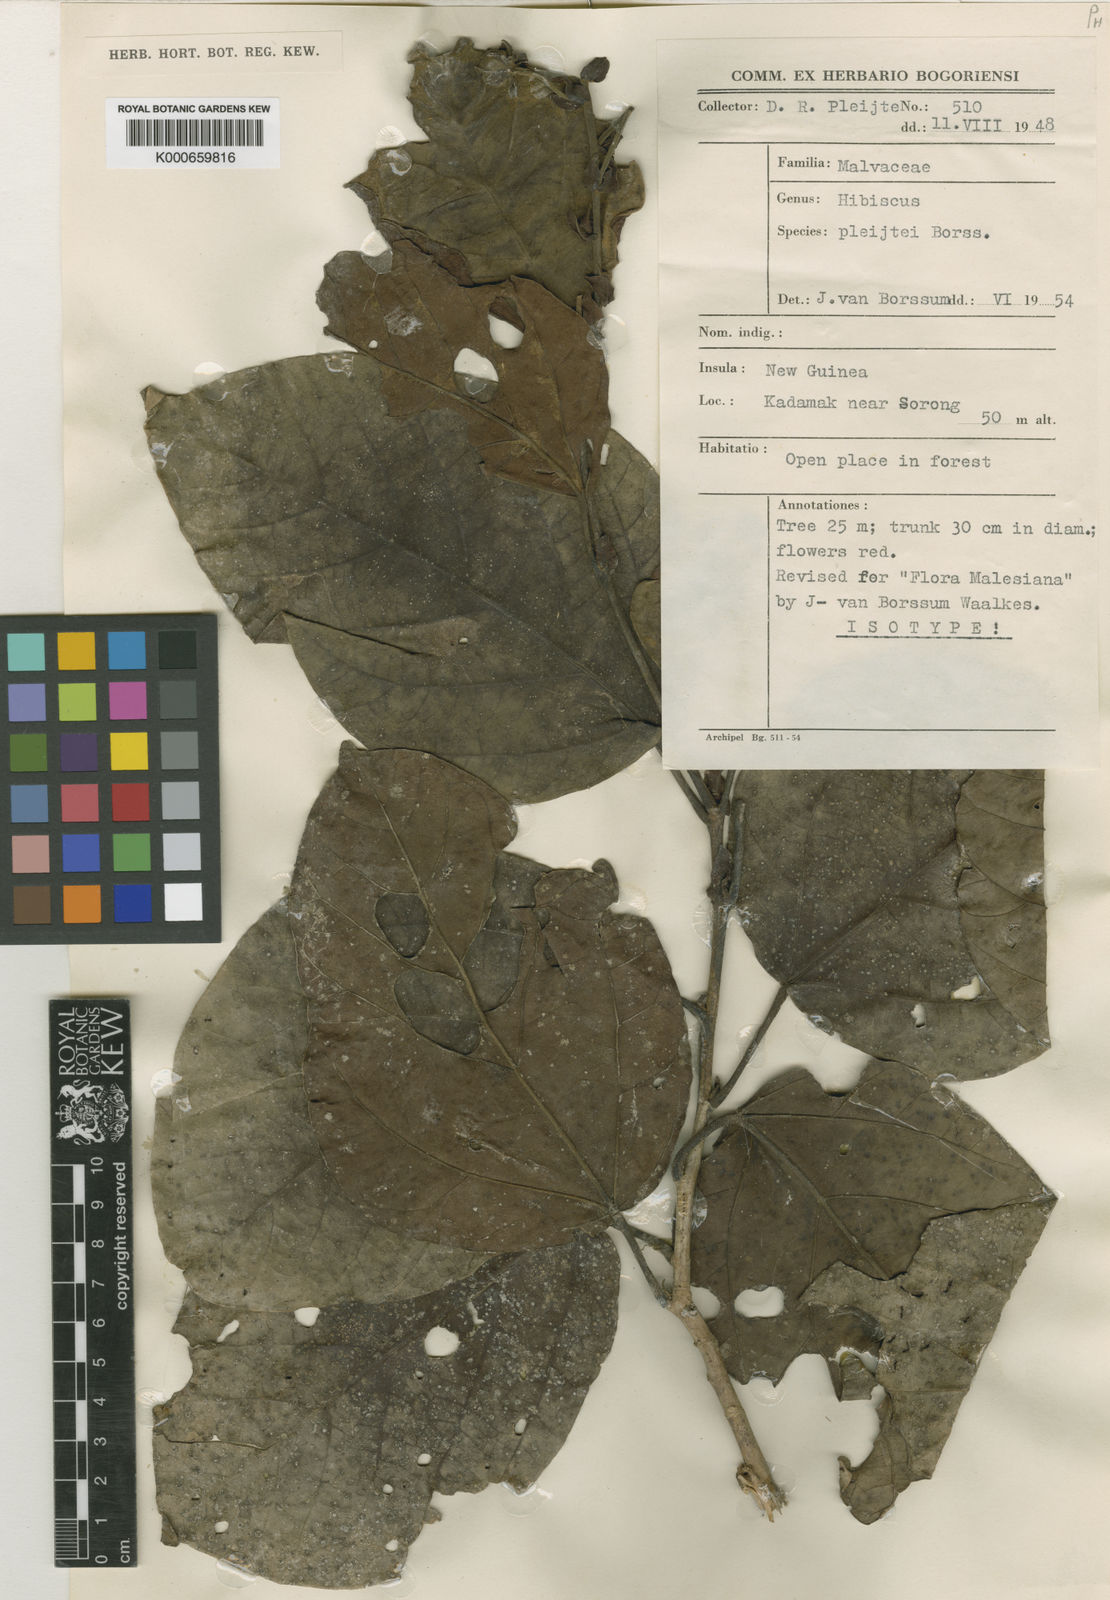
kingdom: Plantae
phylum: Tracheophyta
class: Magnoliopsida
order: Malvales
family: Malvaceae
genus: Talipariti
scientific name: Talipariti pleijtei
